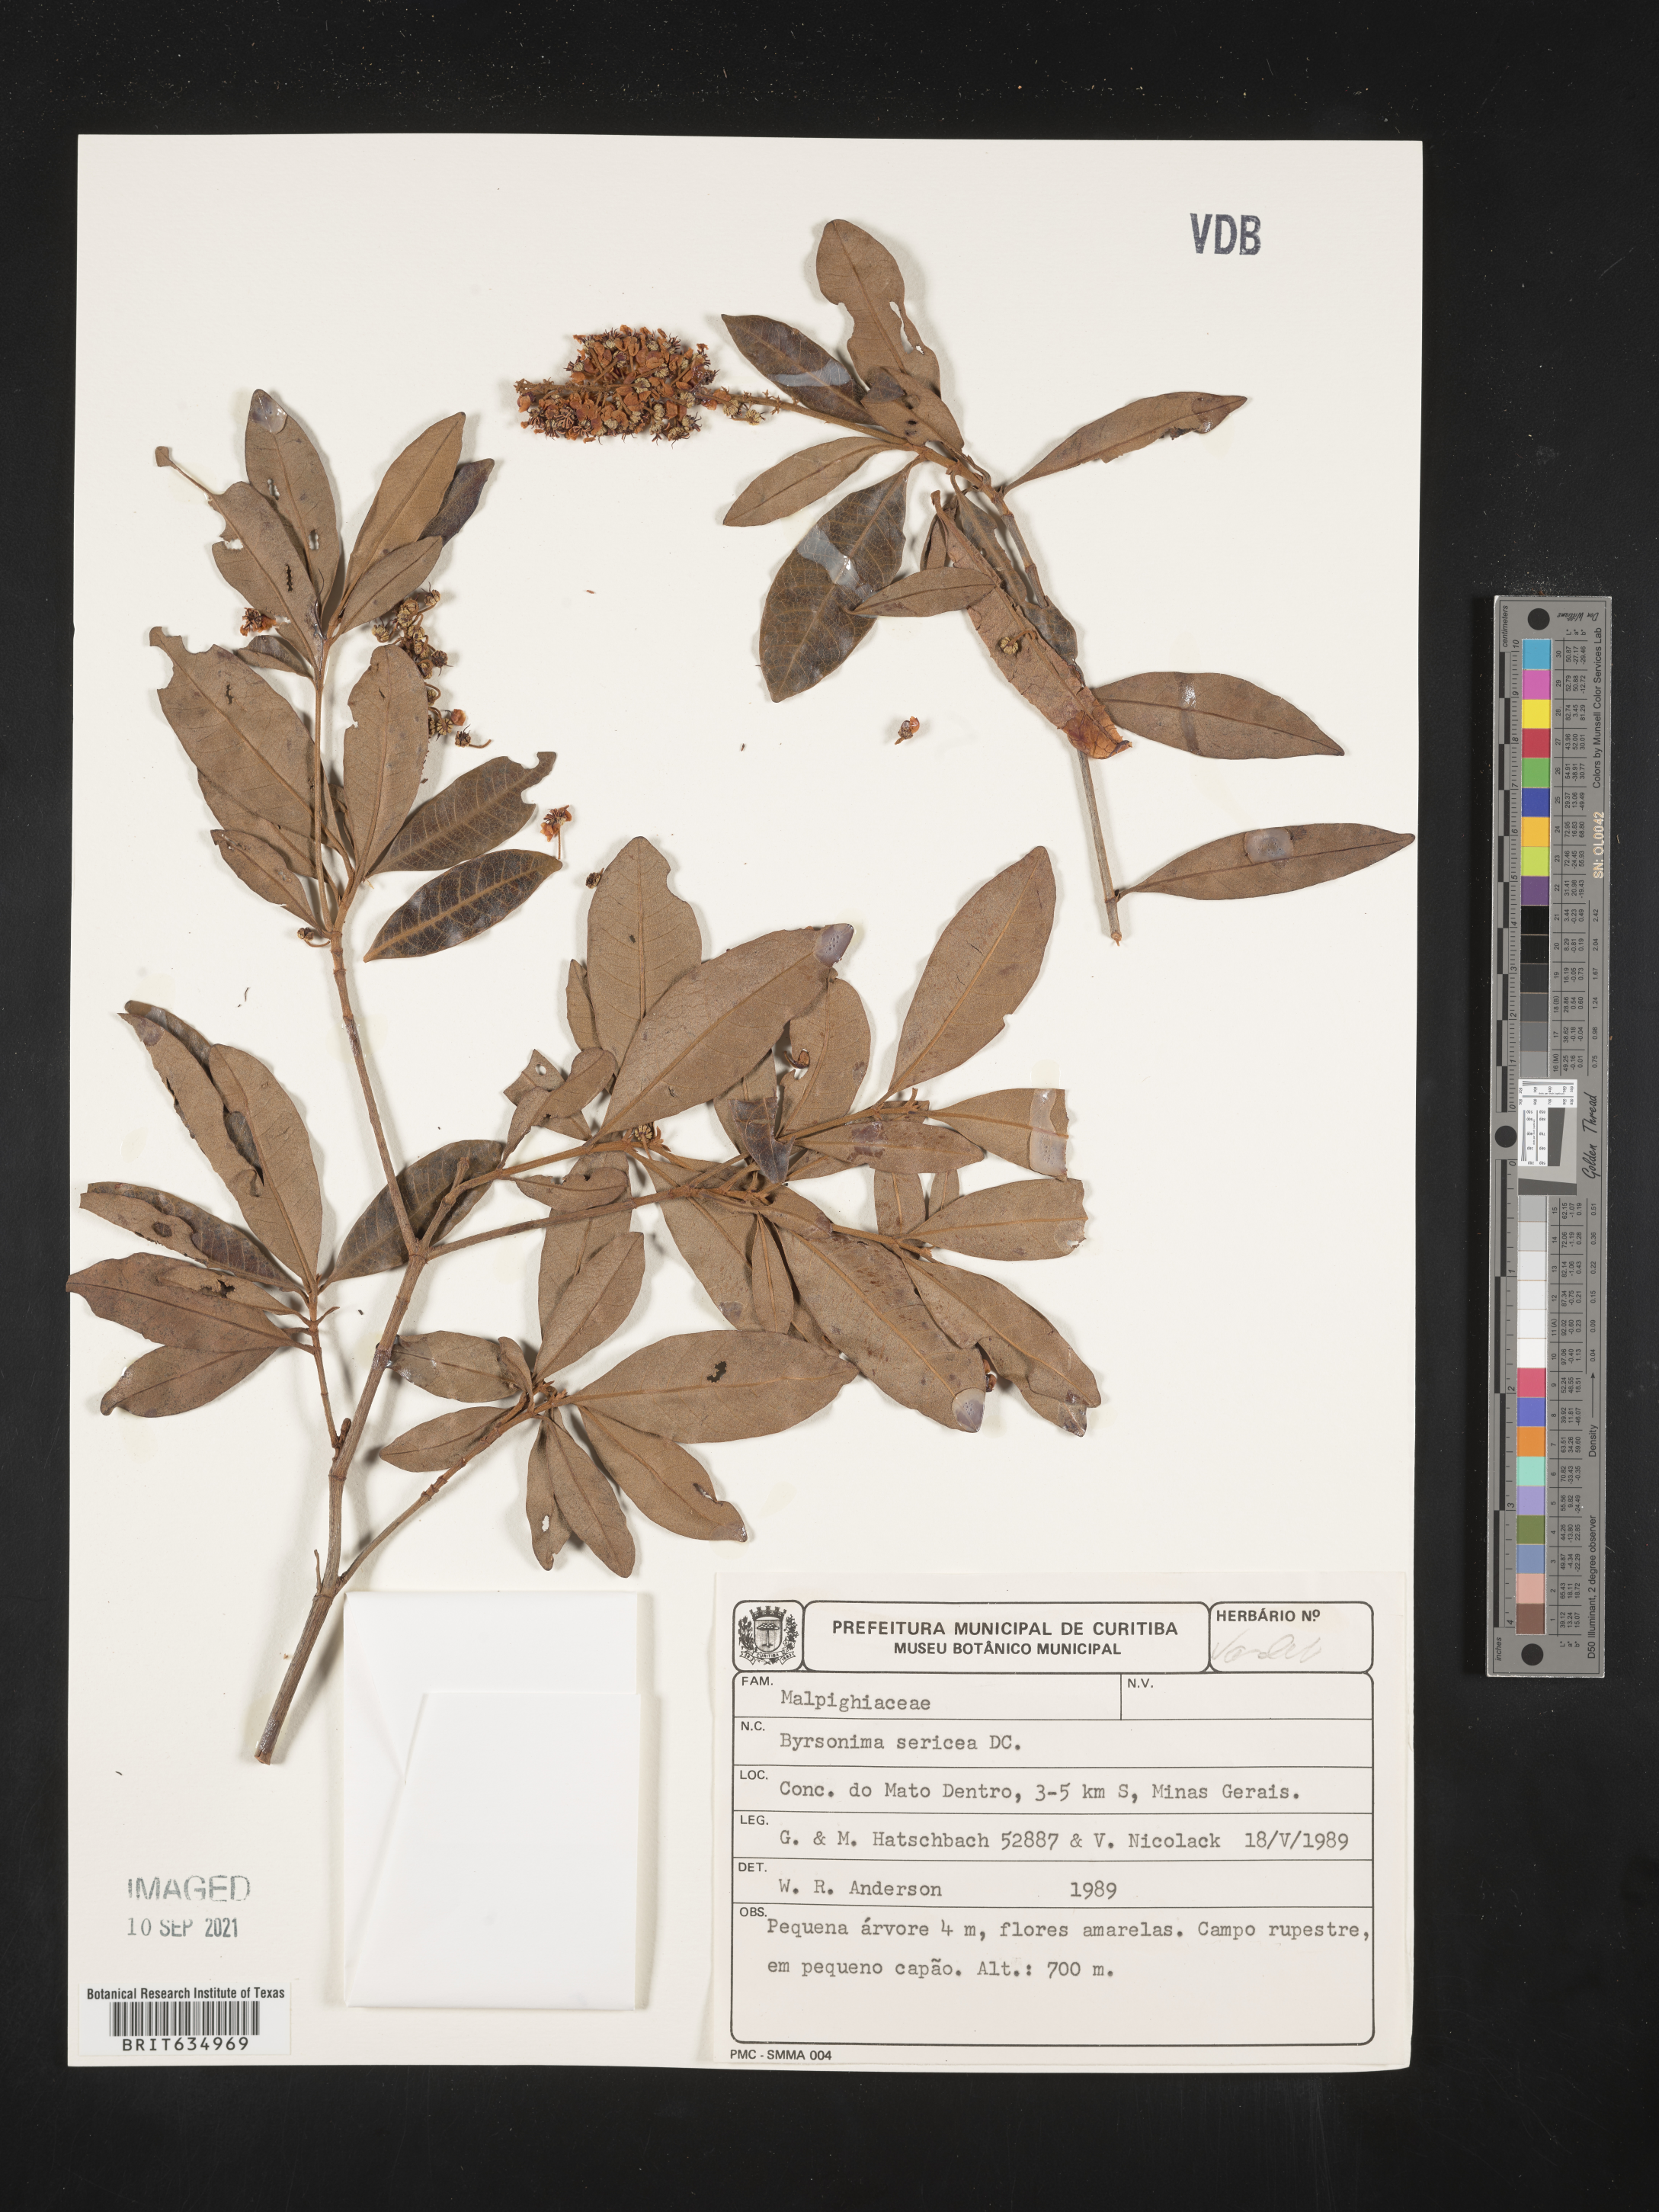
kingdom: Plantae
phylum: Tracheophyta
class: Magnoliopsida
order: Malpighiales
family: Malpighiaceae
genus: Byrsonima
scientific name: Byrsonima
